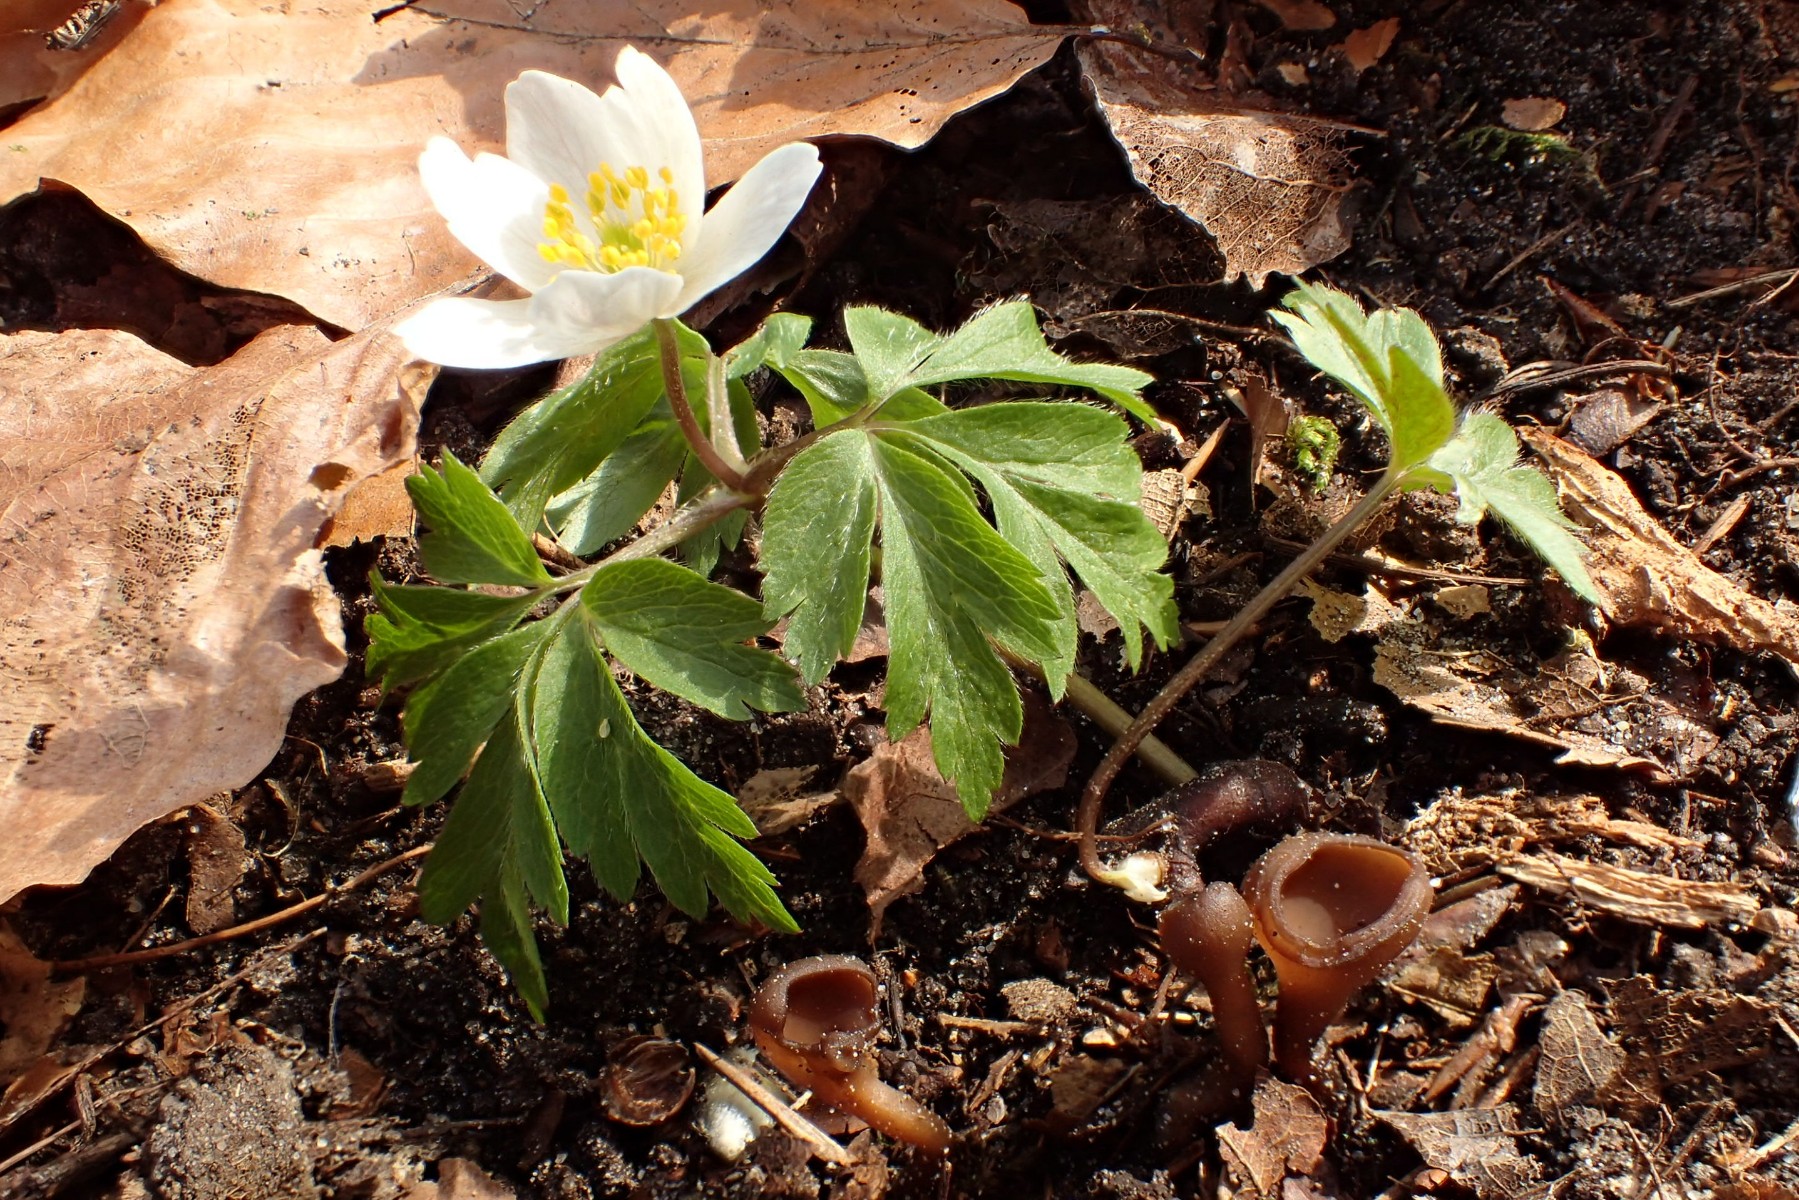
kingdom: Fungi
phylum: Ascomycota
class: Leotiomycetes
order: Helotiales
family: Sclerotiniaceae
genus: Dumontinia
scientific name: Dumontinia tuberosa
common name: anemone-knoldskive
